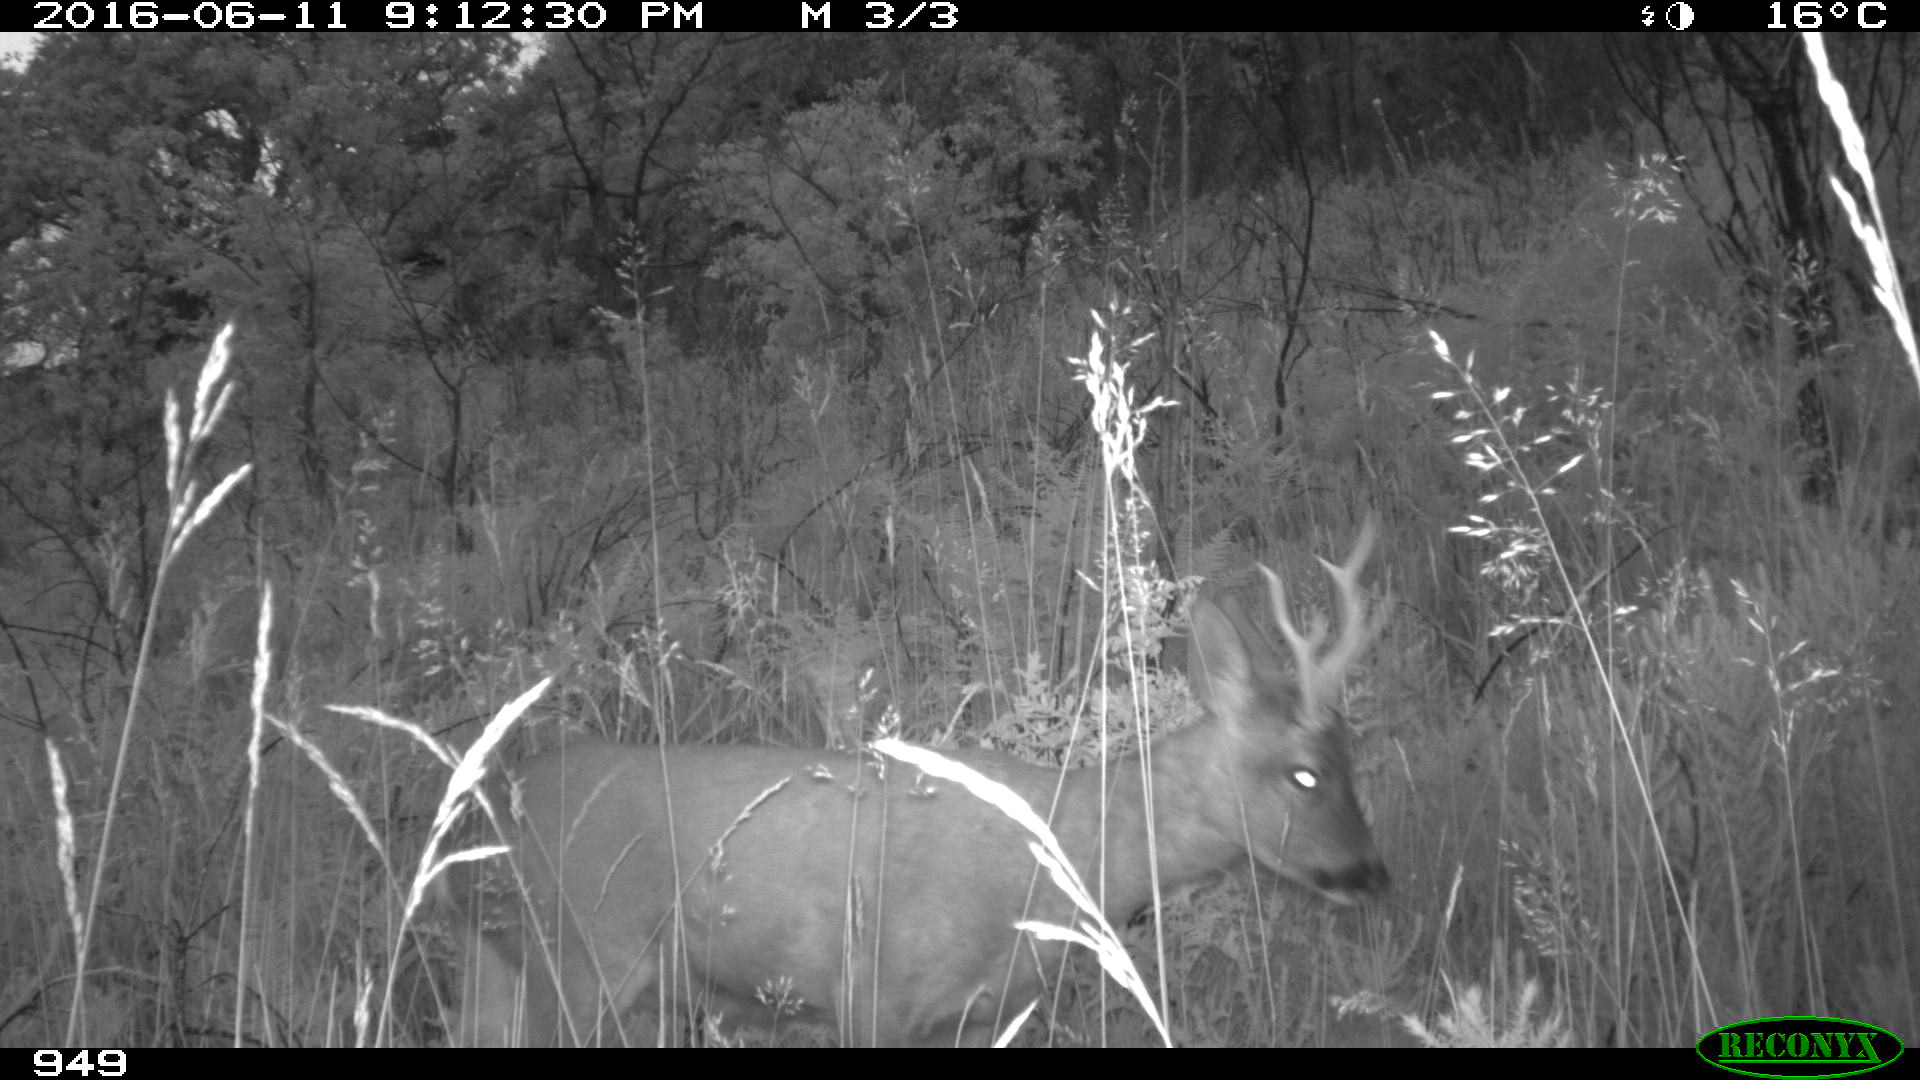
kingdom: Animalia
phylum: Chordata
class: Mammalia
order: Artiodactyla
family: Cervidae
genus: Capreolus
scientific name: Capreolus capreolus
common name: Western roe deer
